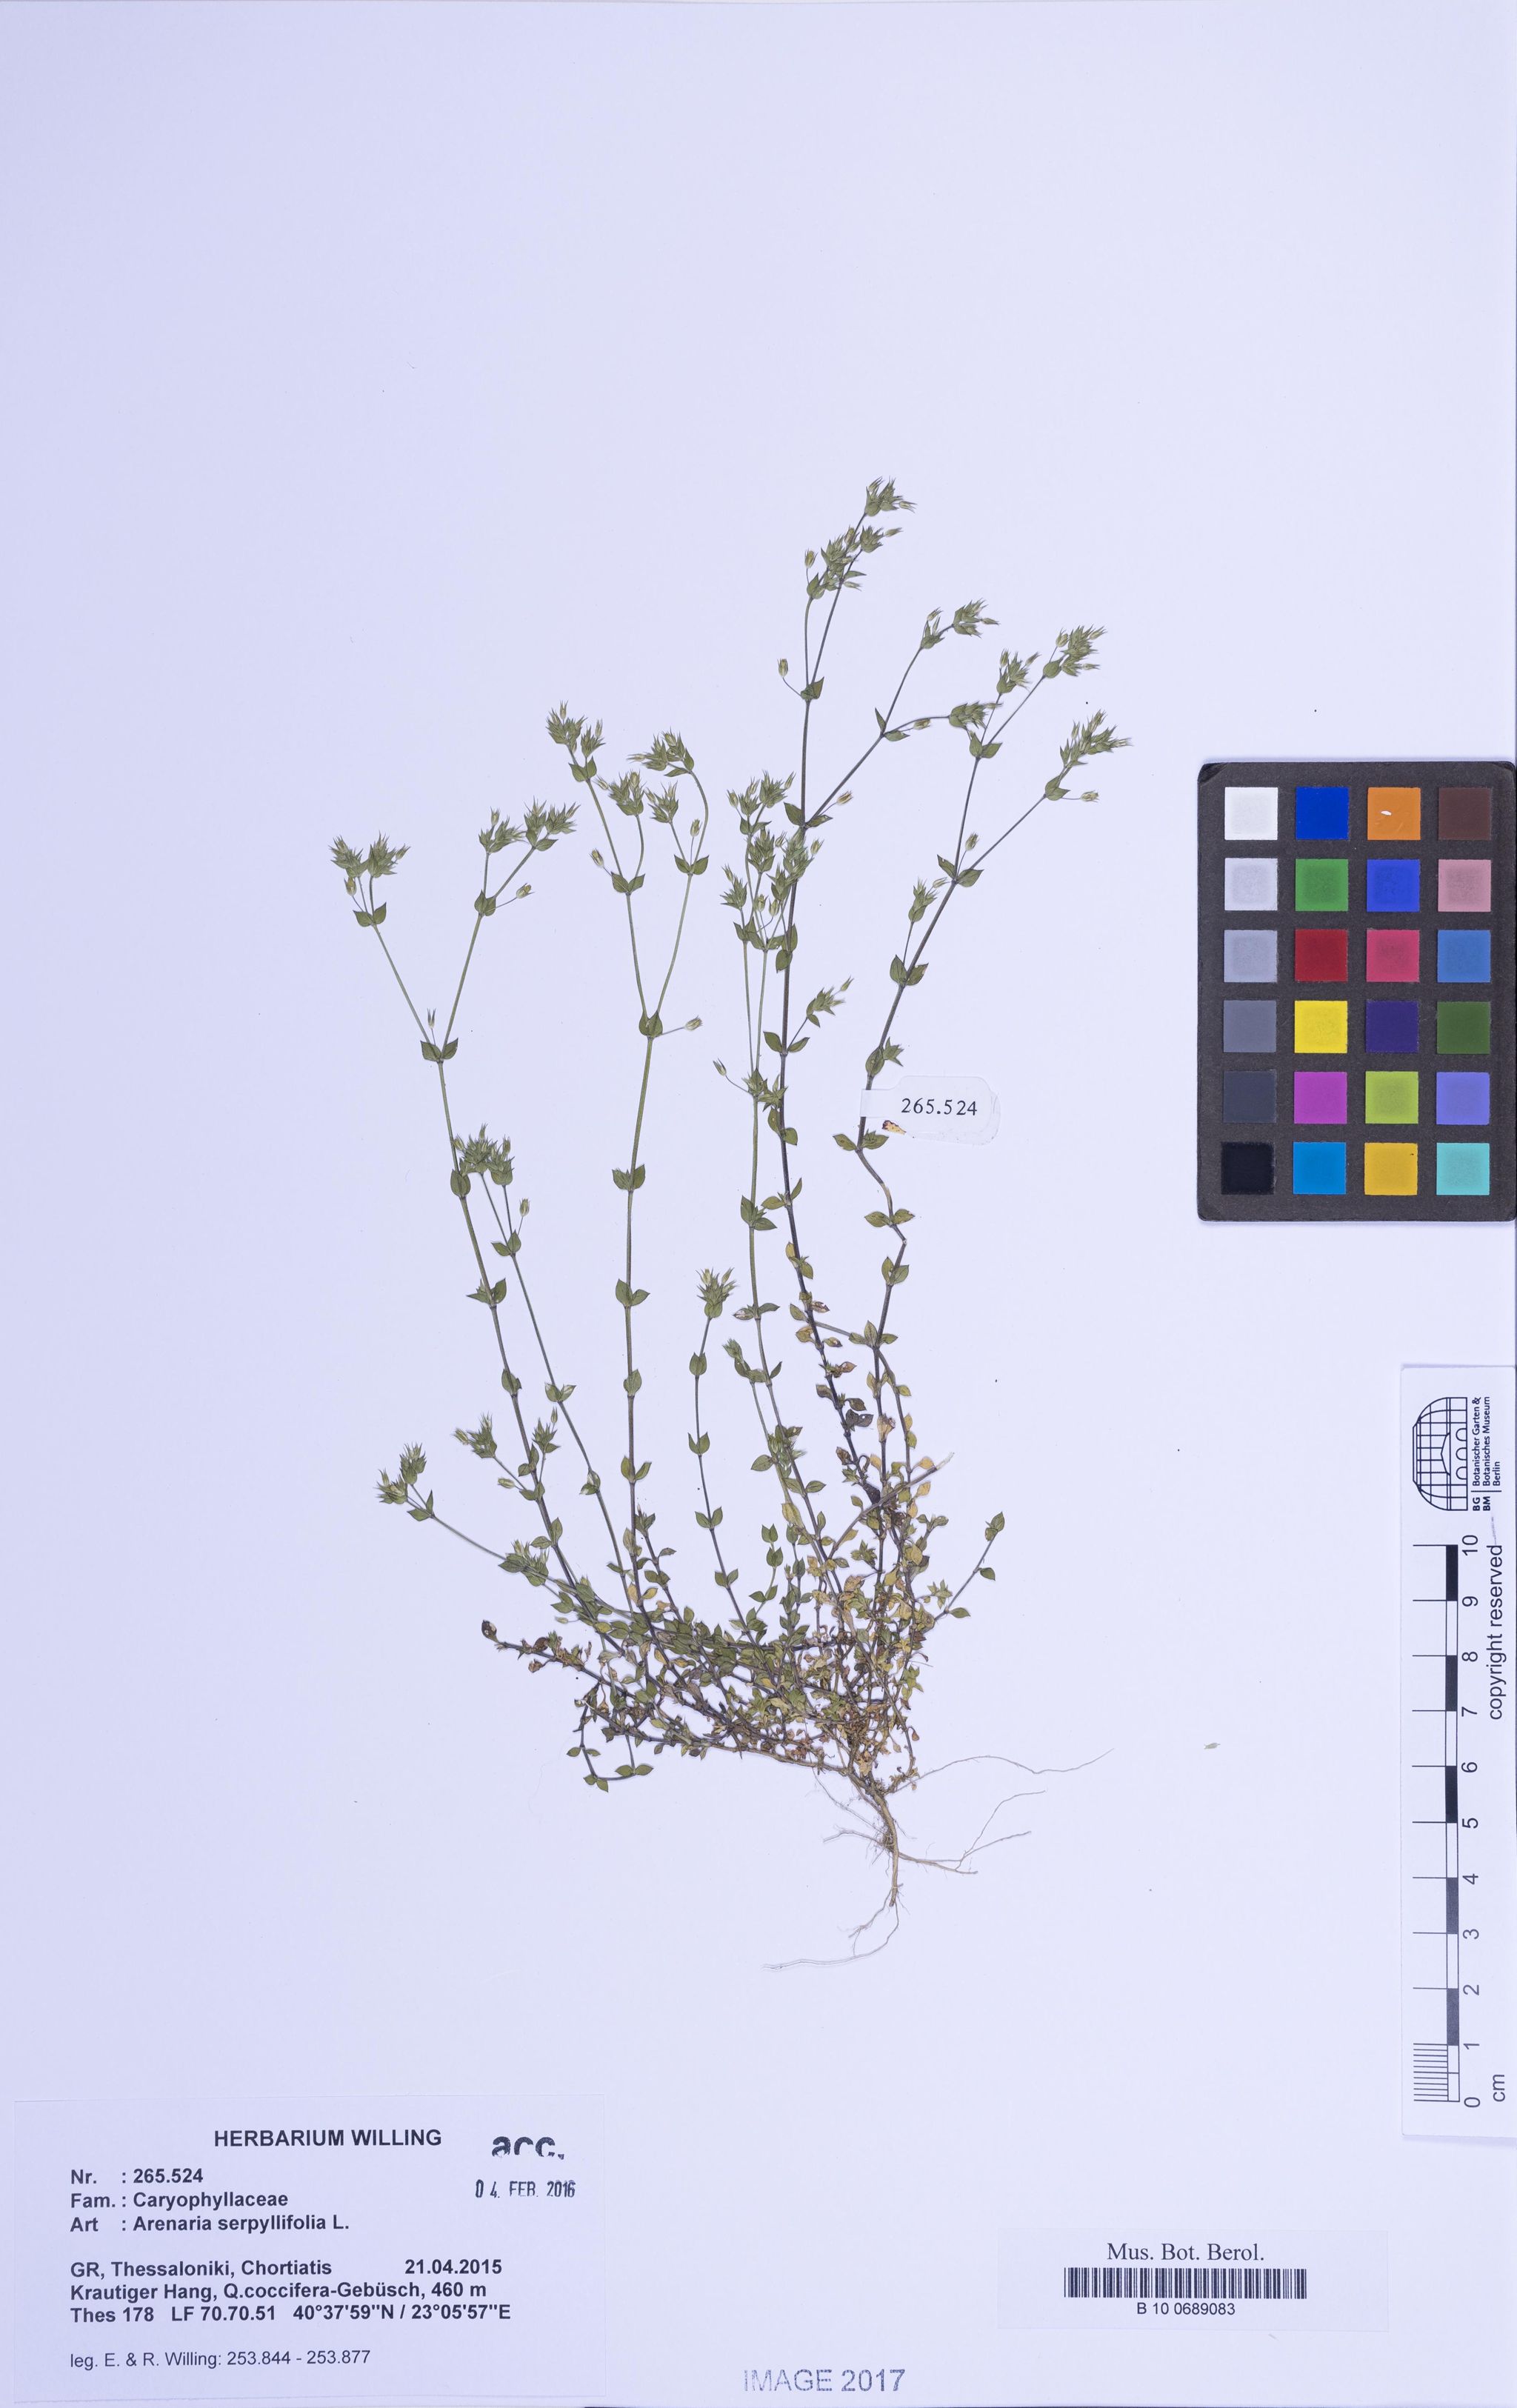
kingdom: Plantae
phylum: Tracheophyta
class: Magnoliopsida
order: Caryophyllales
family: Caryophyllaceae
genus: Arenaria
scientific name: Arenaria serpyllifolia
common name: Thyme-leaved sandwort
